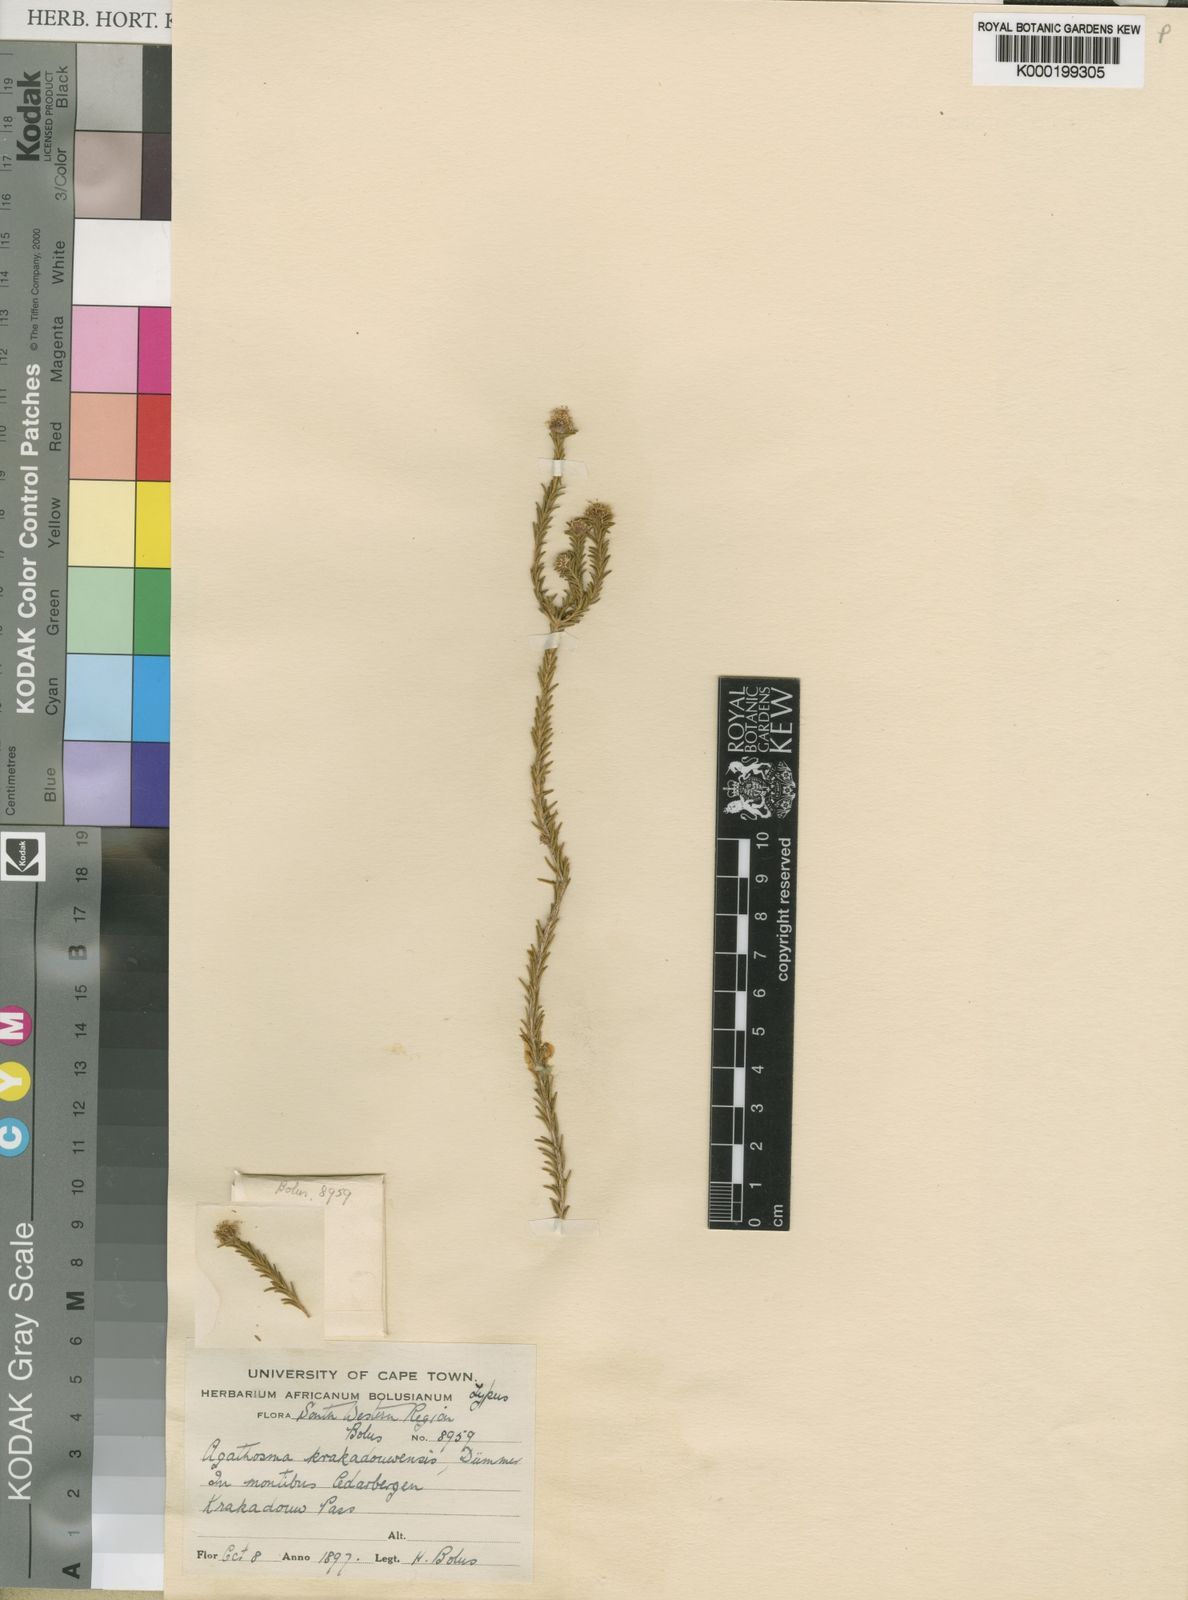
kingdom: Plantae
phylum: Tracheophyta
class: Magnoliopsida
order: Sapindales
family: Rutaceae
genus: Agathosma
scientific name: Agathosma krakadouwensis
